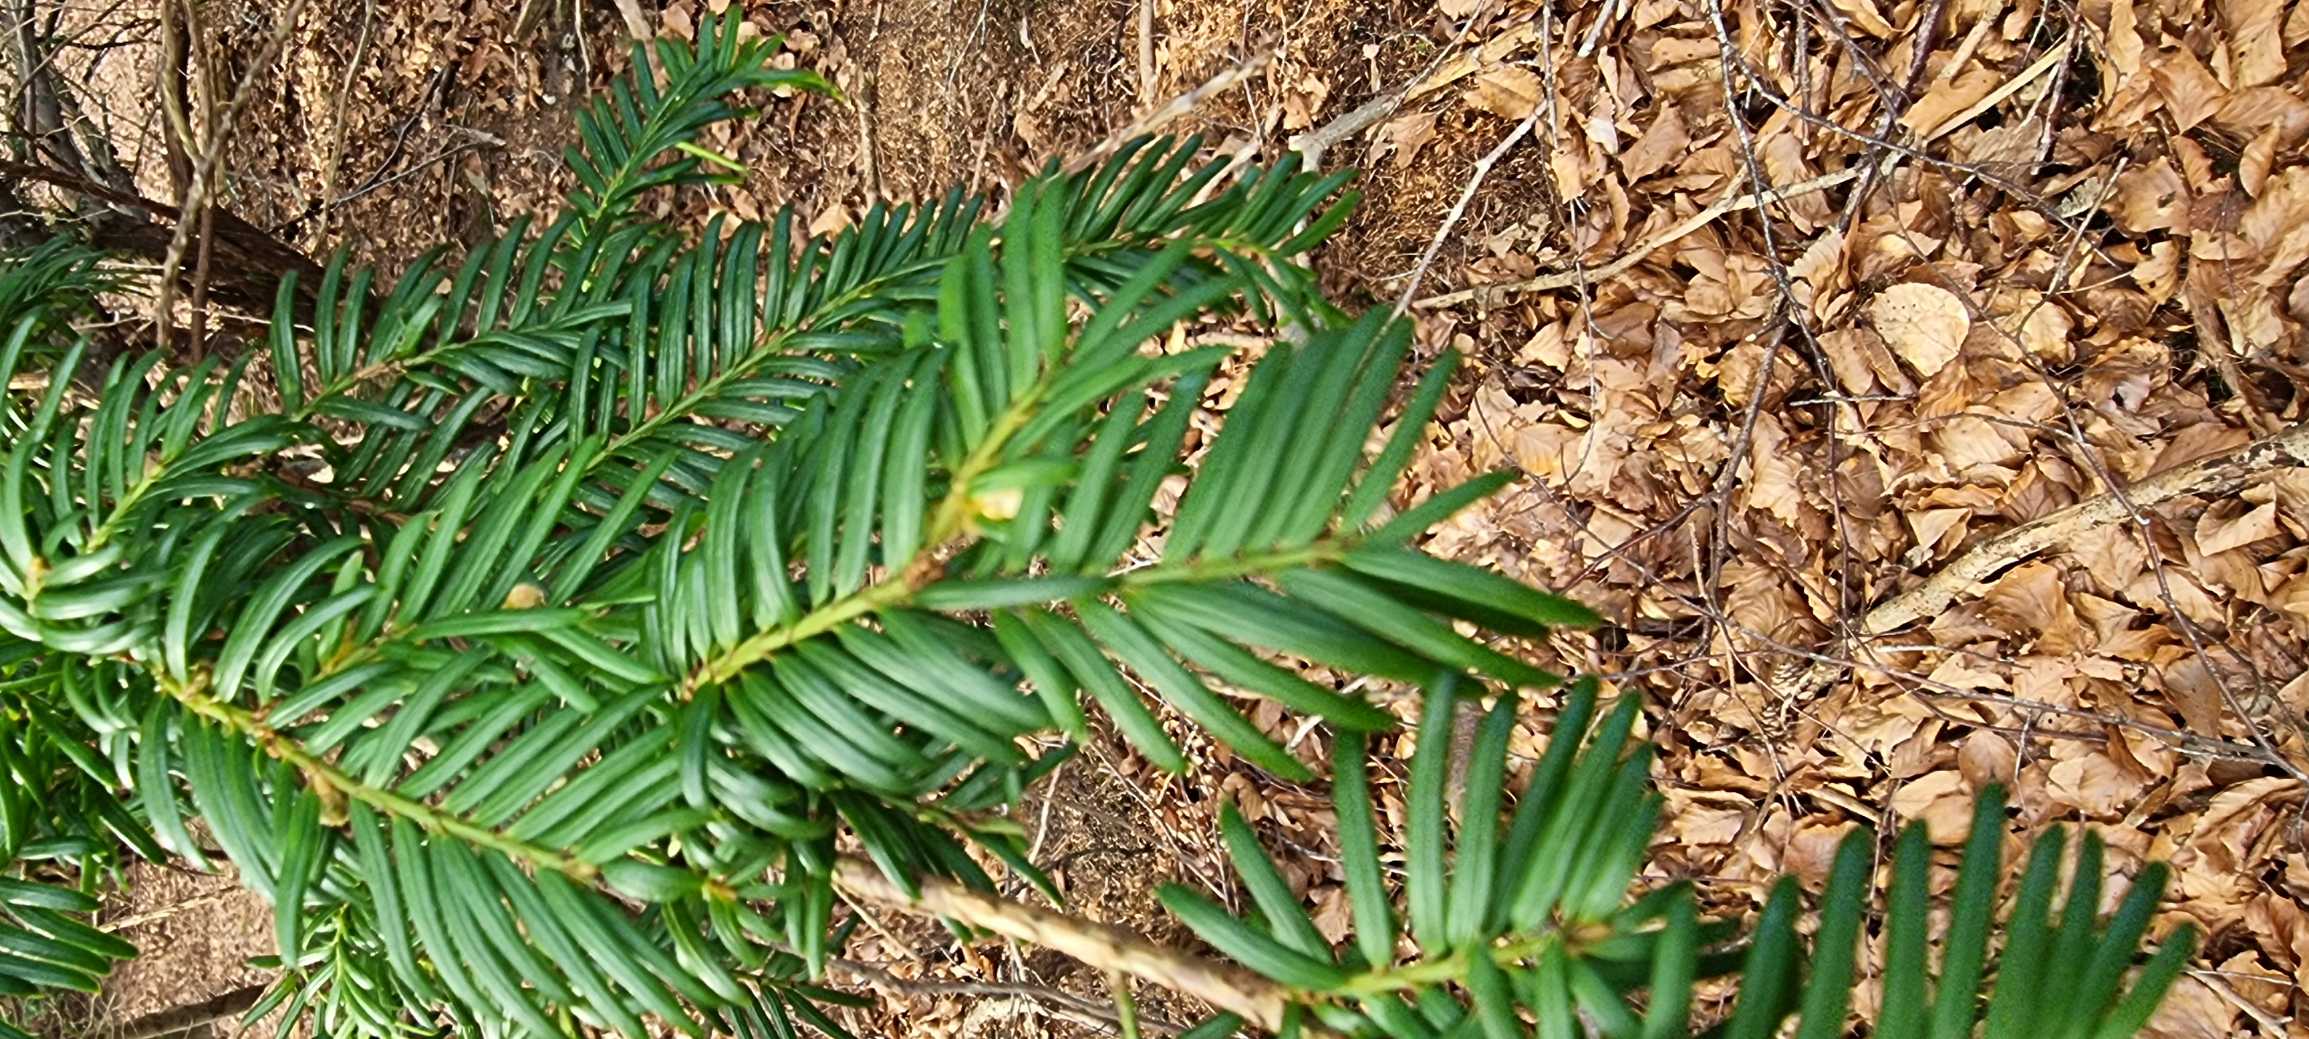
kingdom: Plantae
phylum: Tracheophyta
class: Pinopsida
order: Pinales
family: Taxaceae
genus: Taxus
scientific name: Taxus baccata
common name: Almindelig taks
